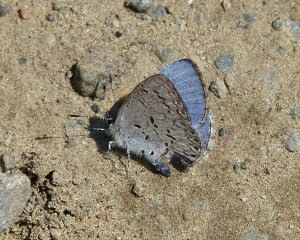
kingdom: Animalia
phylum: Arthropoda
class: Insecta
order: Lepidoptera
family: Lycaenidae
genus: Celastrina
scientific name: Celastrina lucia
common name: Northern Spring Azure
